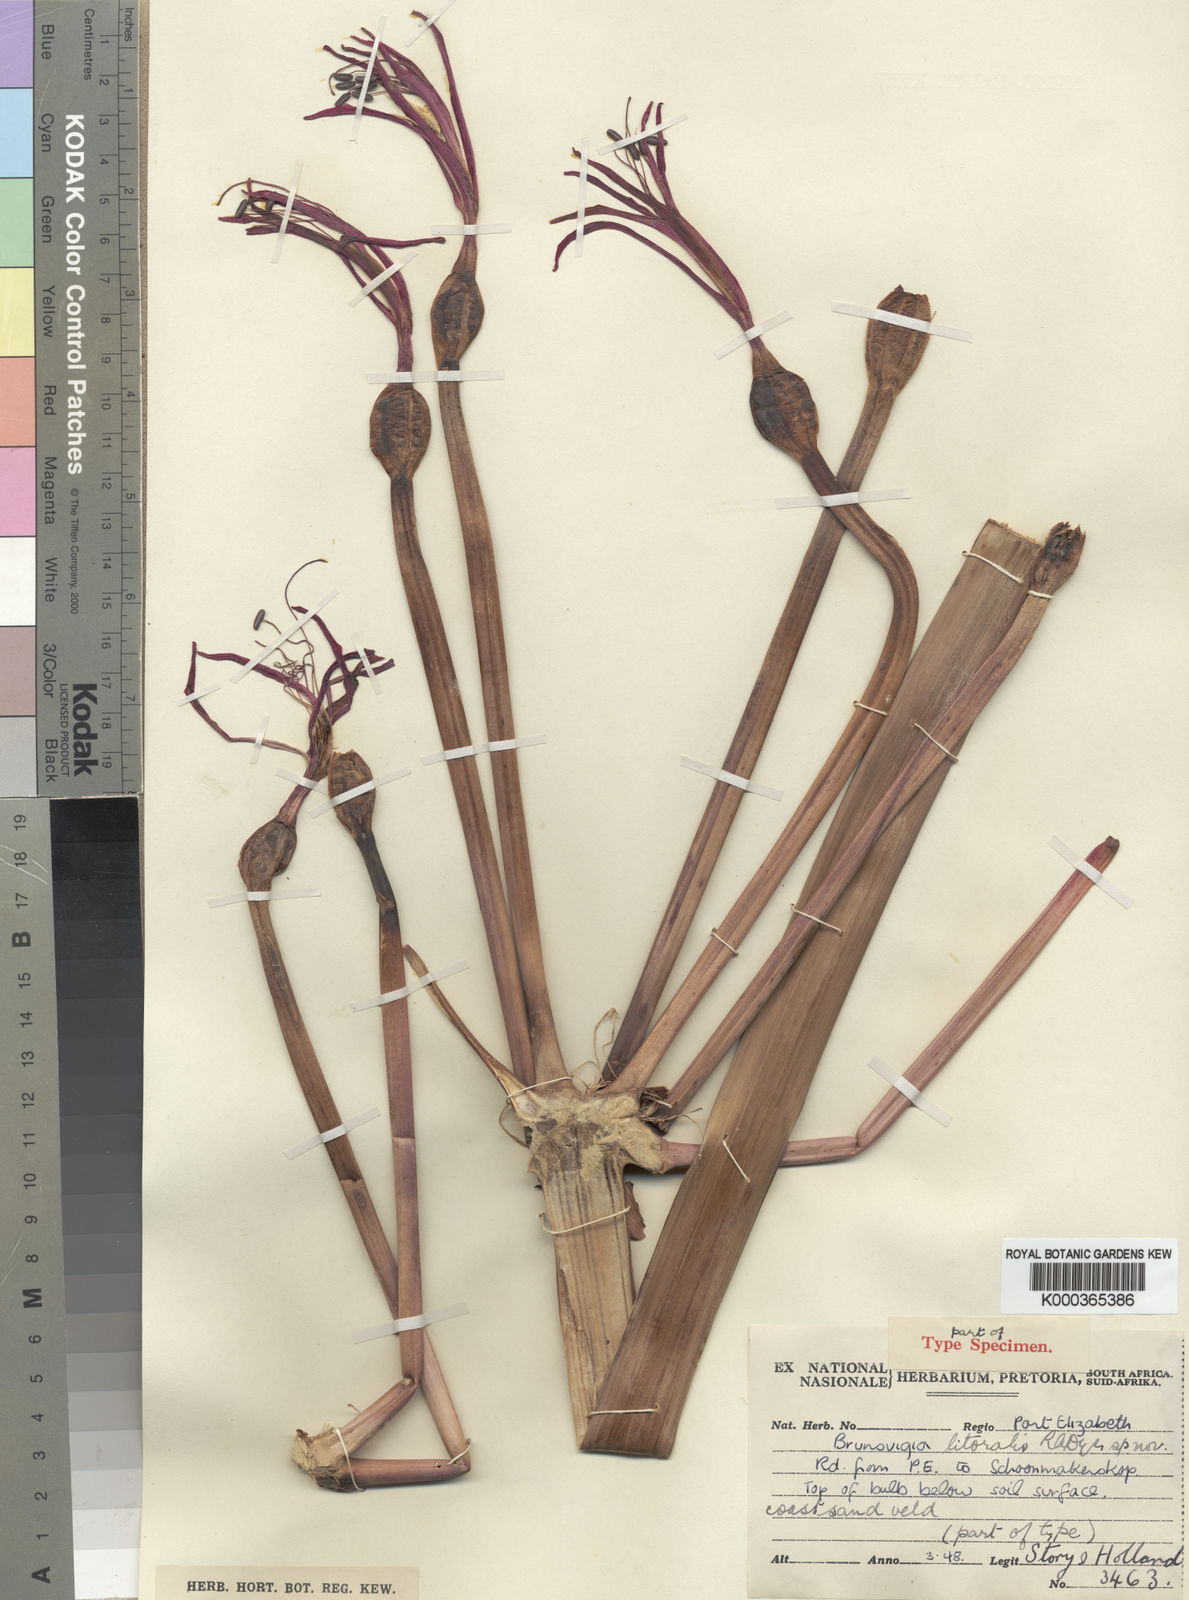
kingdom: Plantae
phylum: Tracheophyta
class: Liliopsida
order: Asparagales
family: Amaryllidaceae
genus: Brunsvigia
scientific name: Brunsvigia litoralis
